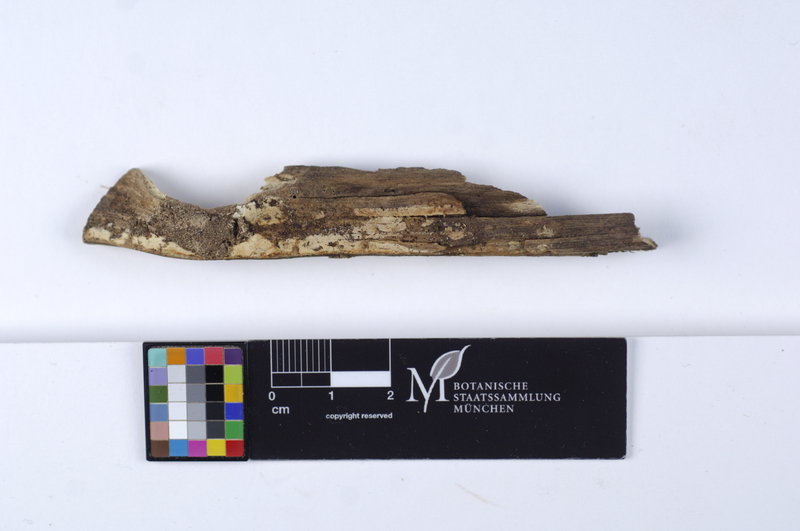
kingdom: Fungi
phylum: Basidiomycota
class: Agaricomycetes
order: Russulales
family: Stereaceae
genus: Gloeocystidiellum
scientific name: Gloeocystidiellum clavuligerum
